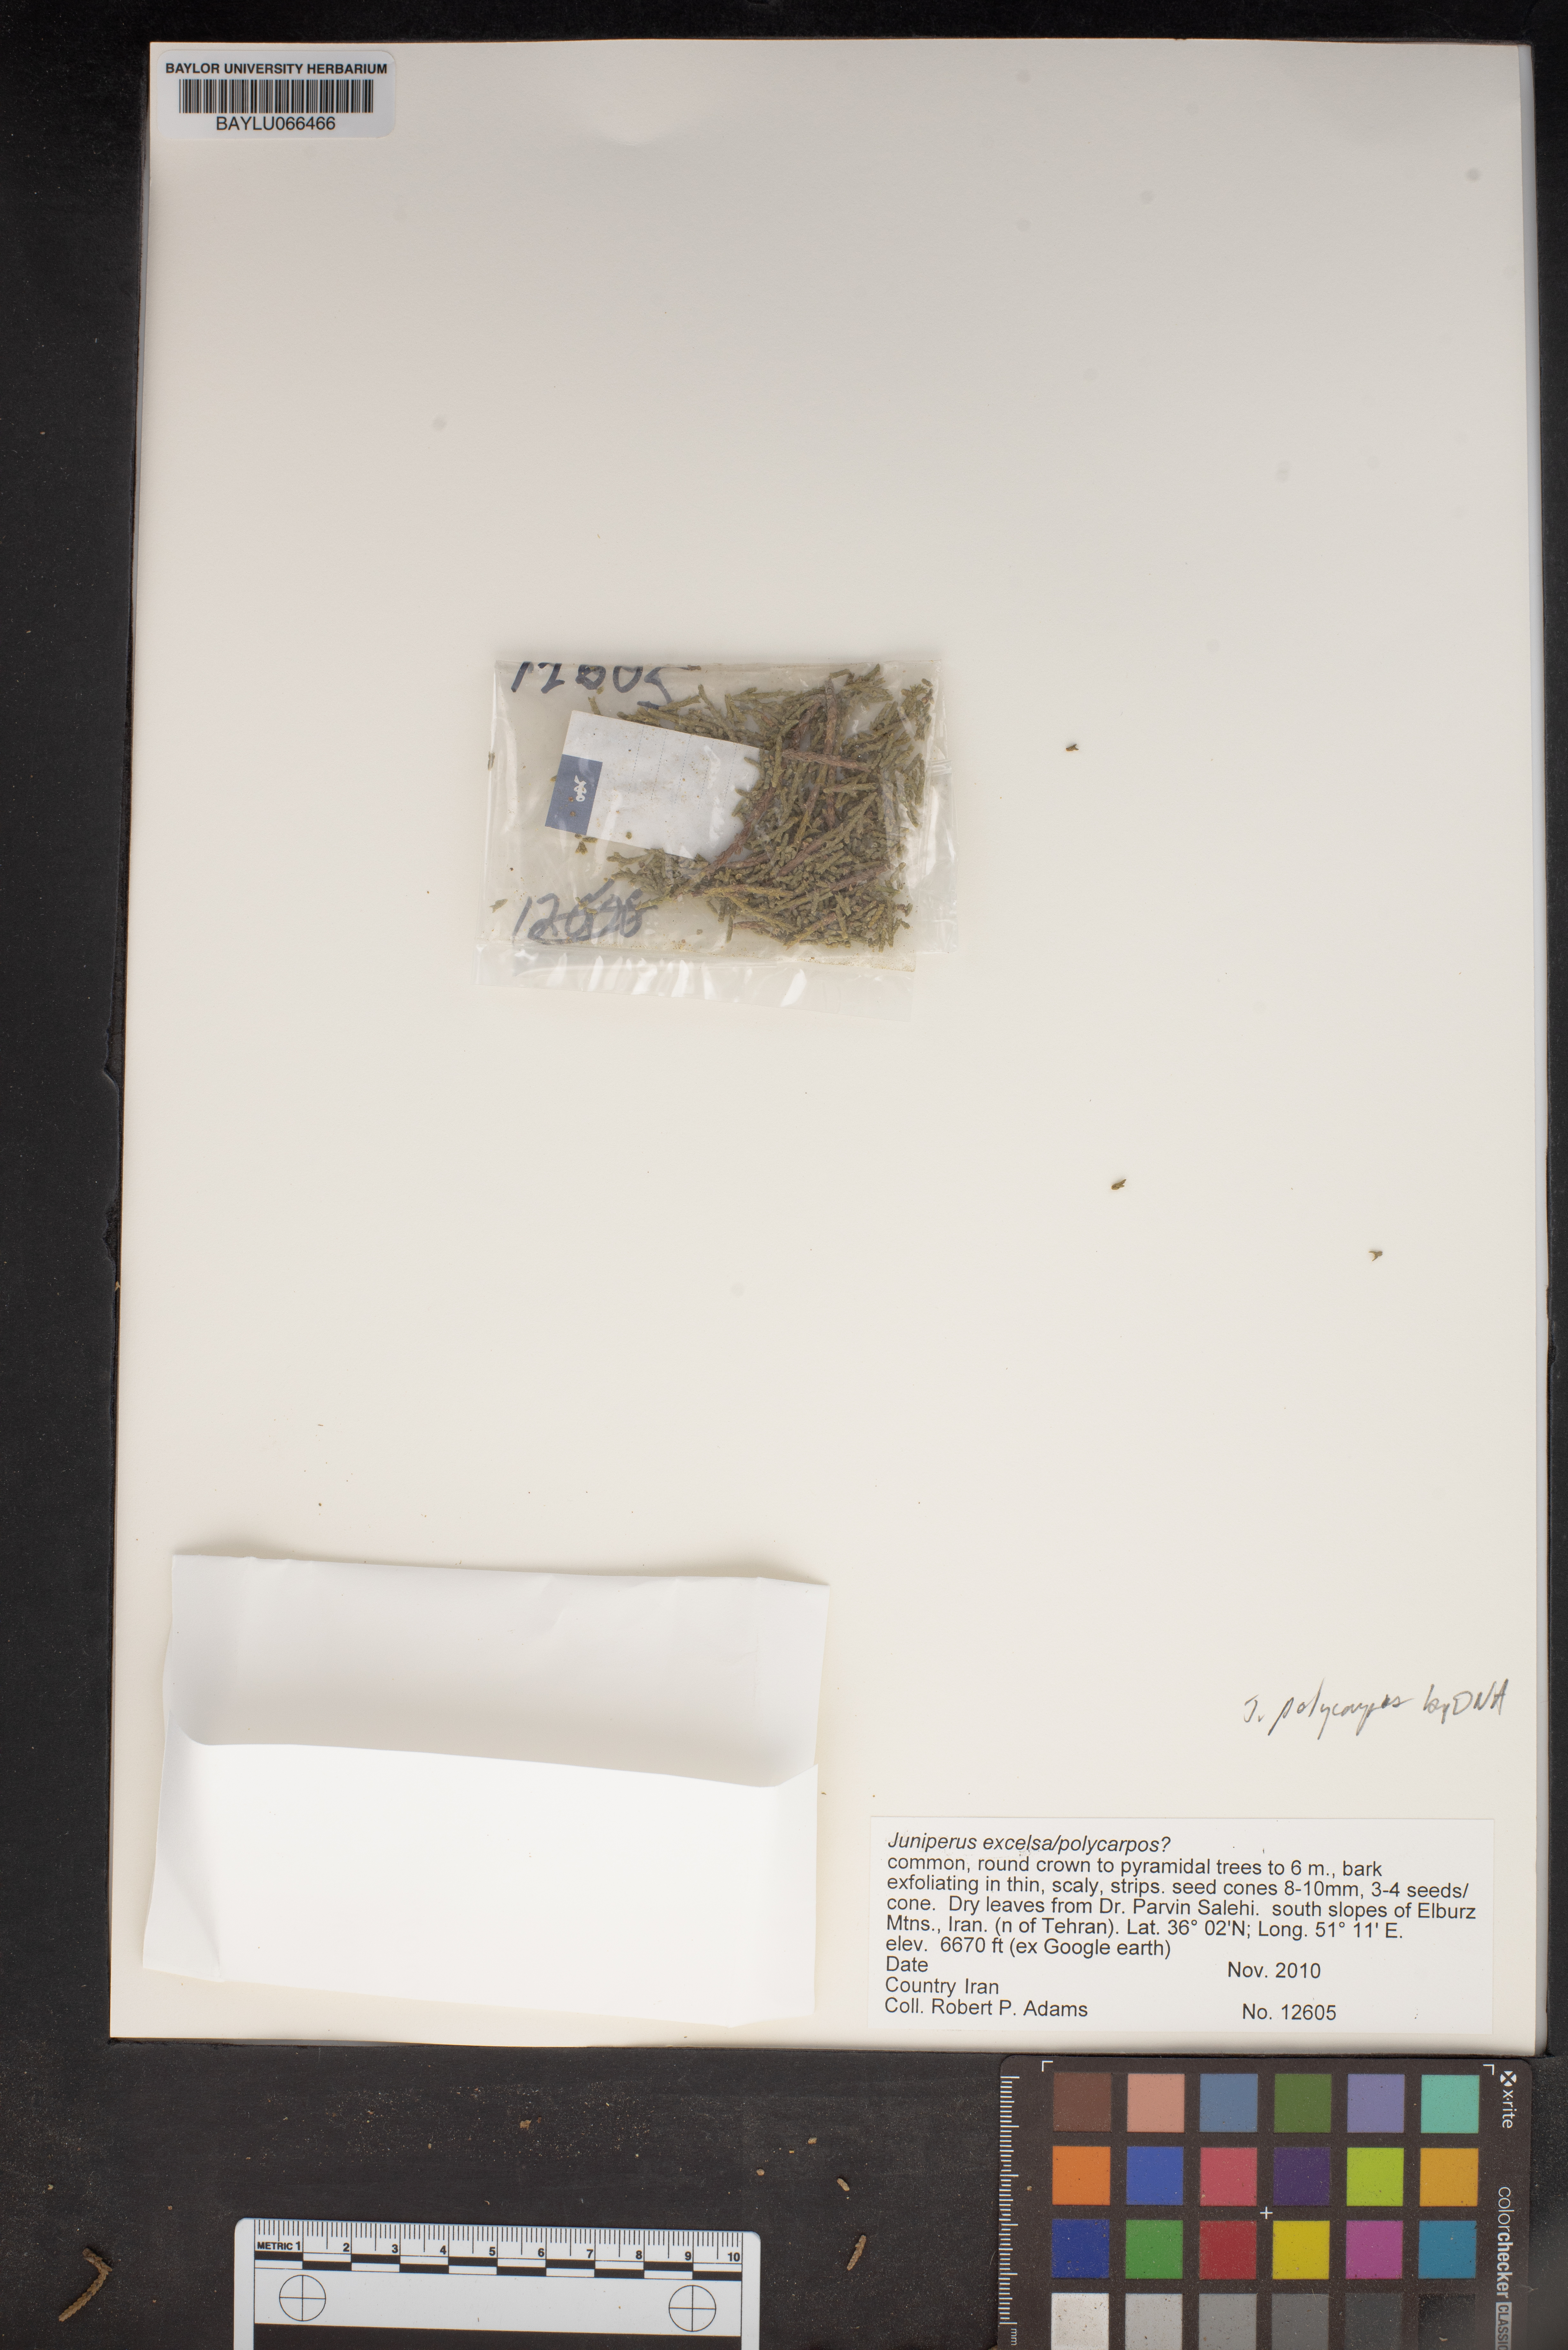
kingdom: Plantae
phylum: Tracheophyta
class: Pinopsida
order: Pinales
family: Cupressaceae
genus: Juniperus
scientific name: Juniperus excelsa
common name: Crimean juniper
